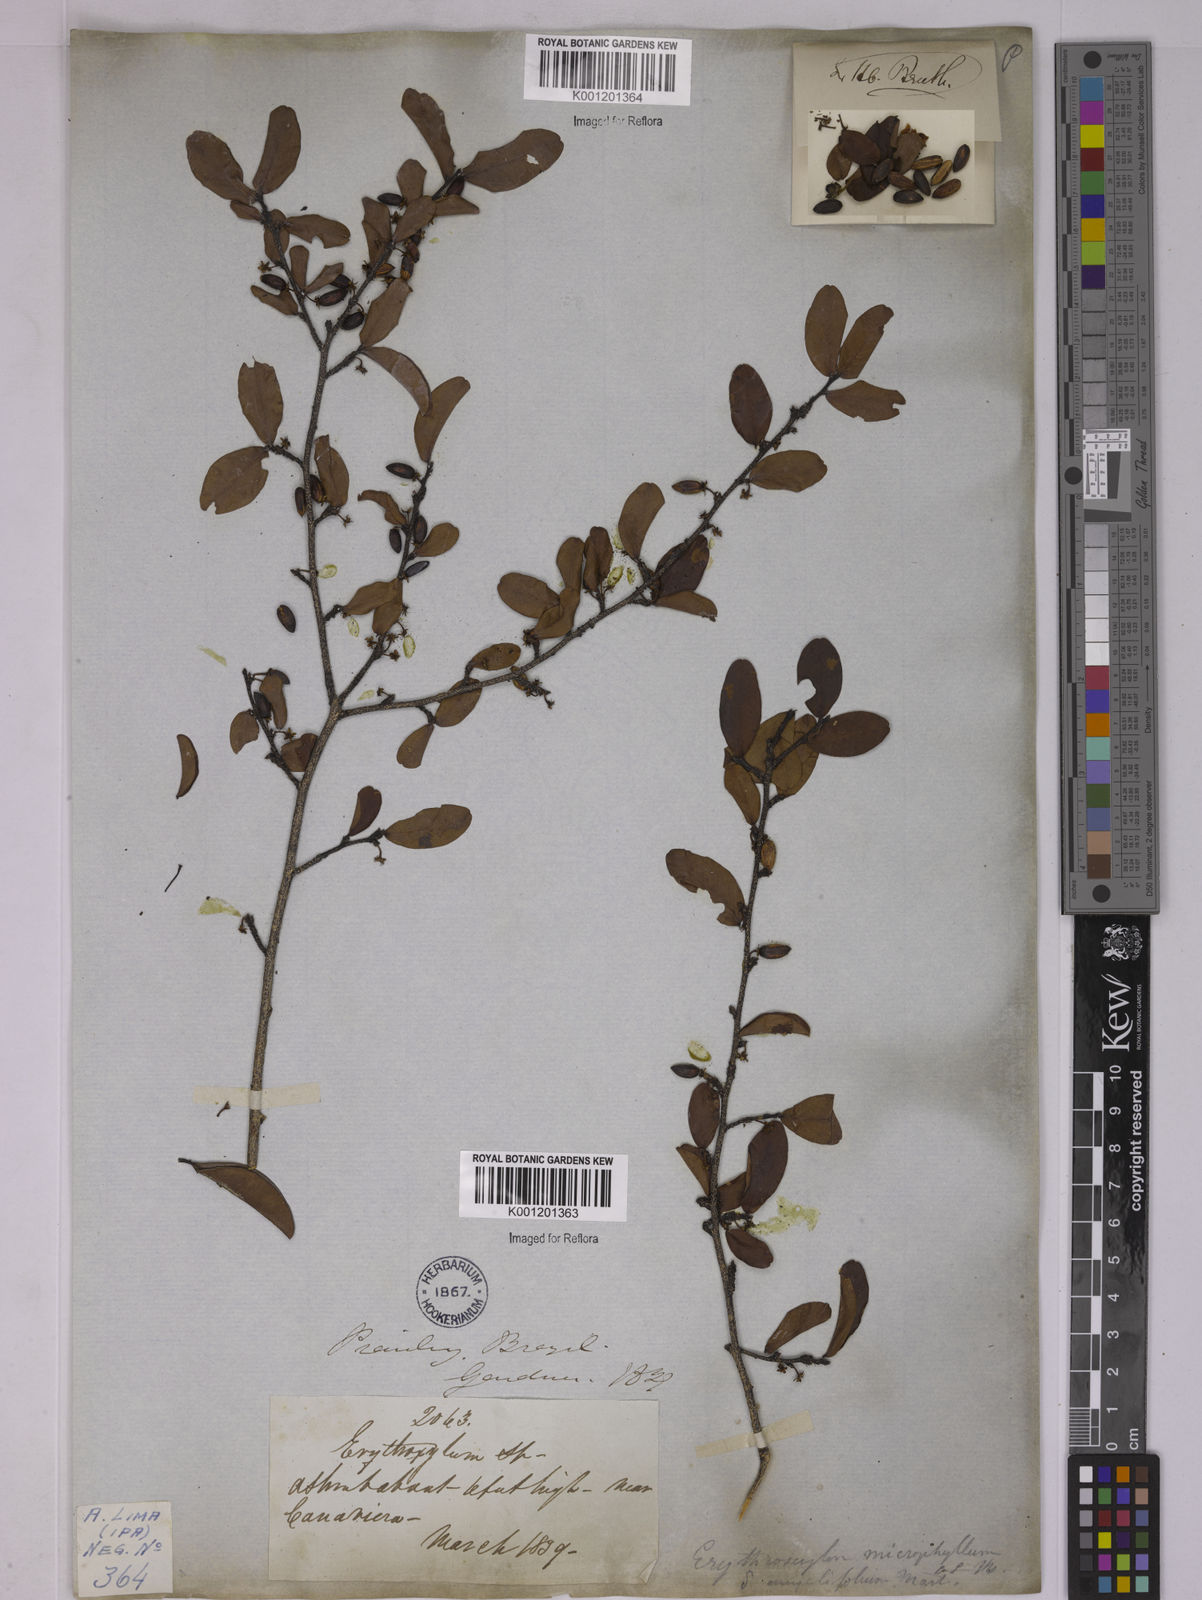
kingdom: Plantae
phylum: Tracheophyta
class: Magnoliopsida
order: Malpighiales
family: Erythroxylaceae
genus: Erythroxylum
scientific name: Erythroxylum
